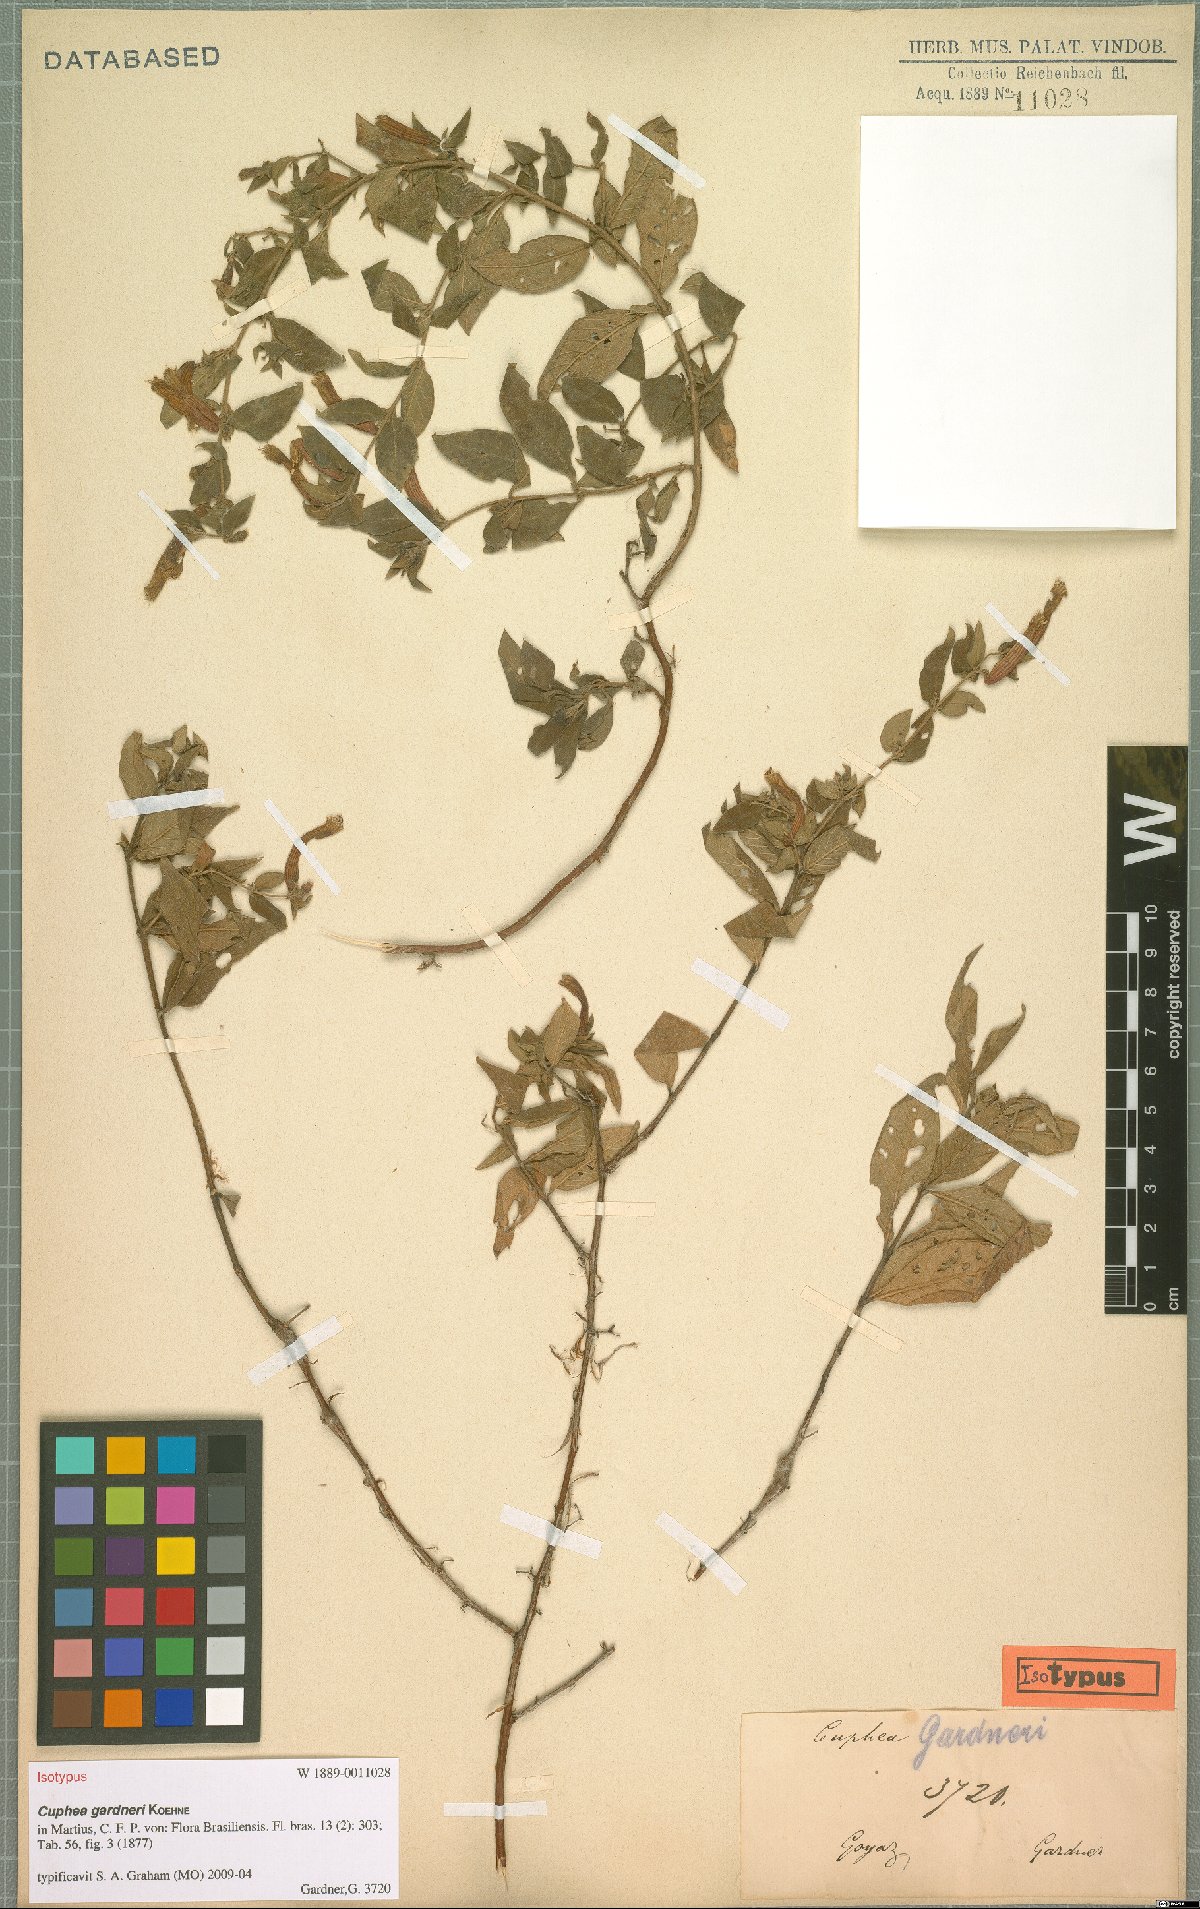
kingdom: Plantae
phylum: Tracheophyta
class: Magnoliopsida
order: Myrtales
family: Lythraceae
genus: Cuphea
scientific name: Cuphea gardneri
